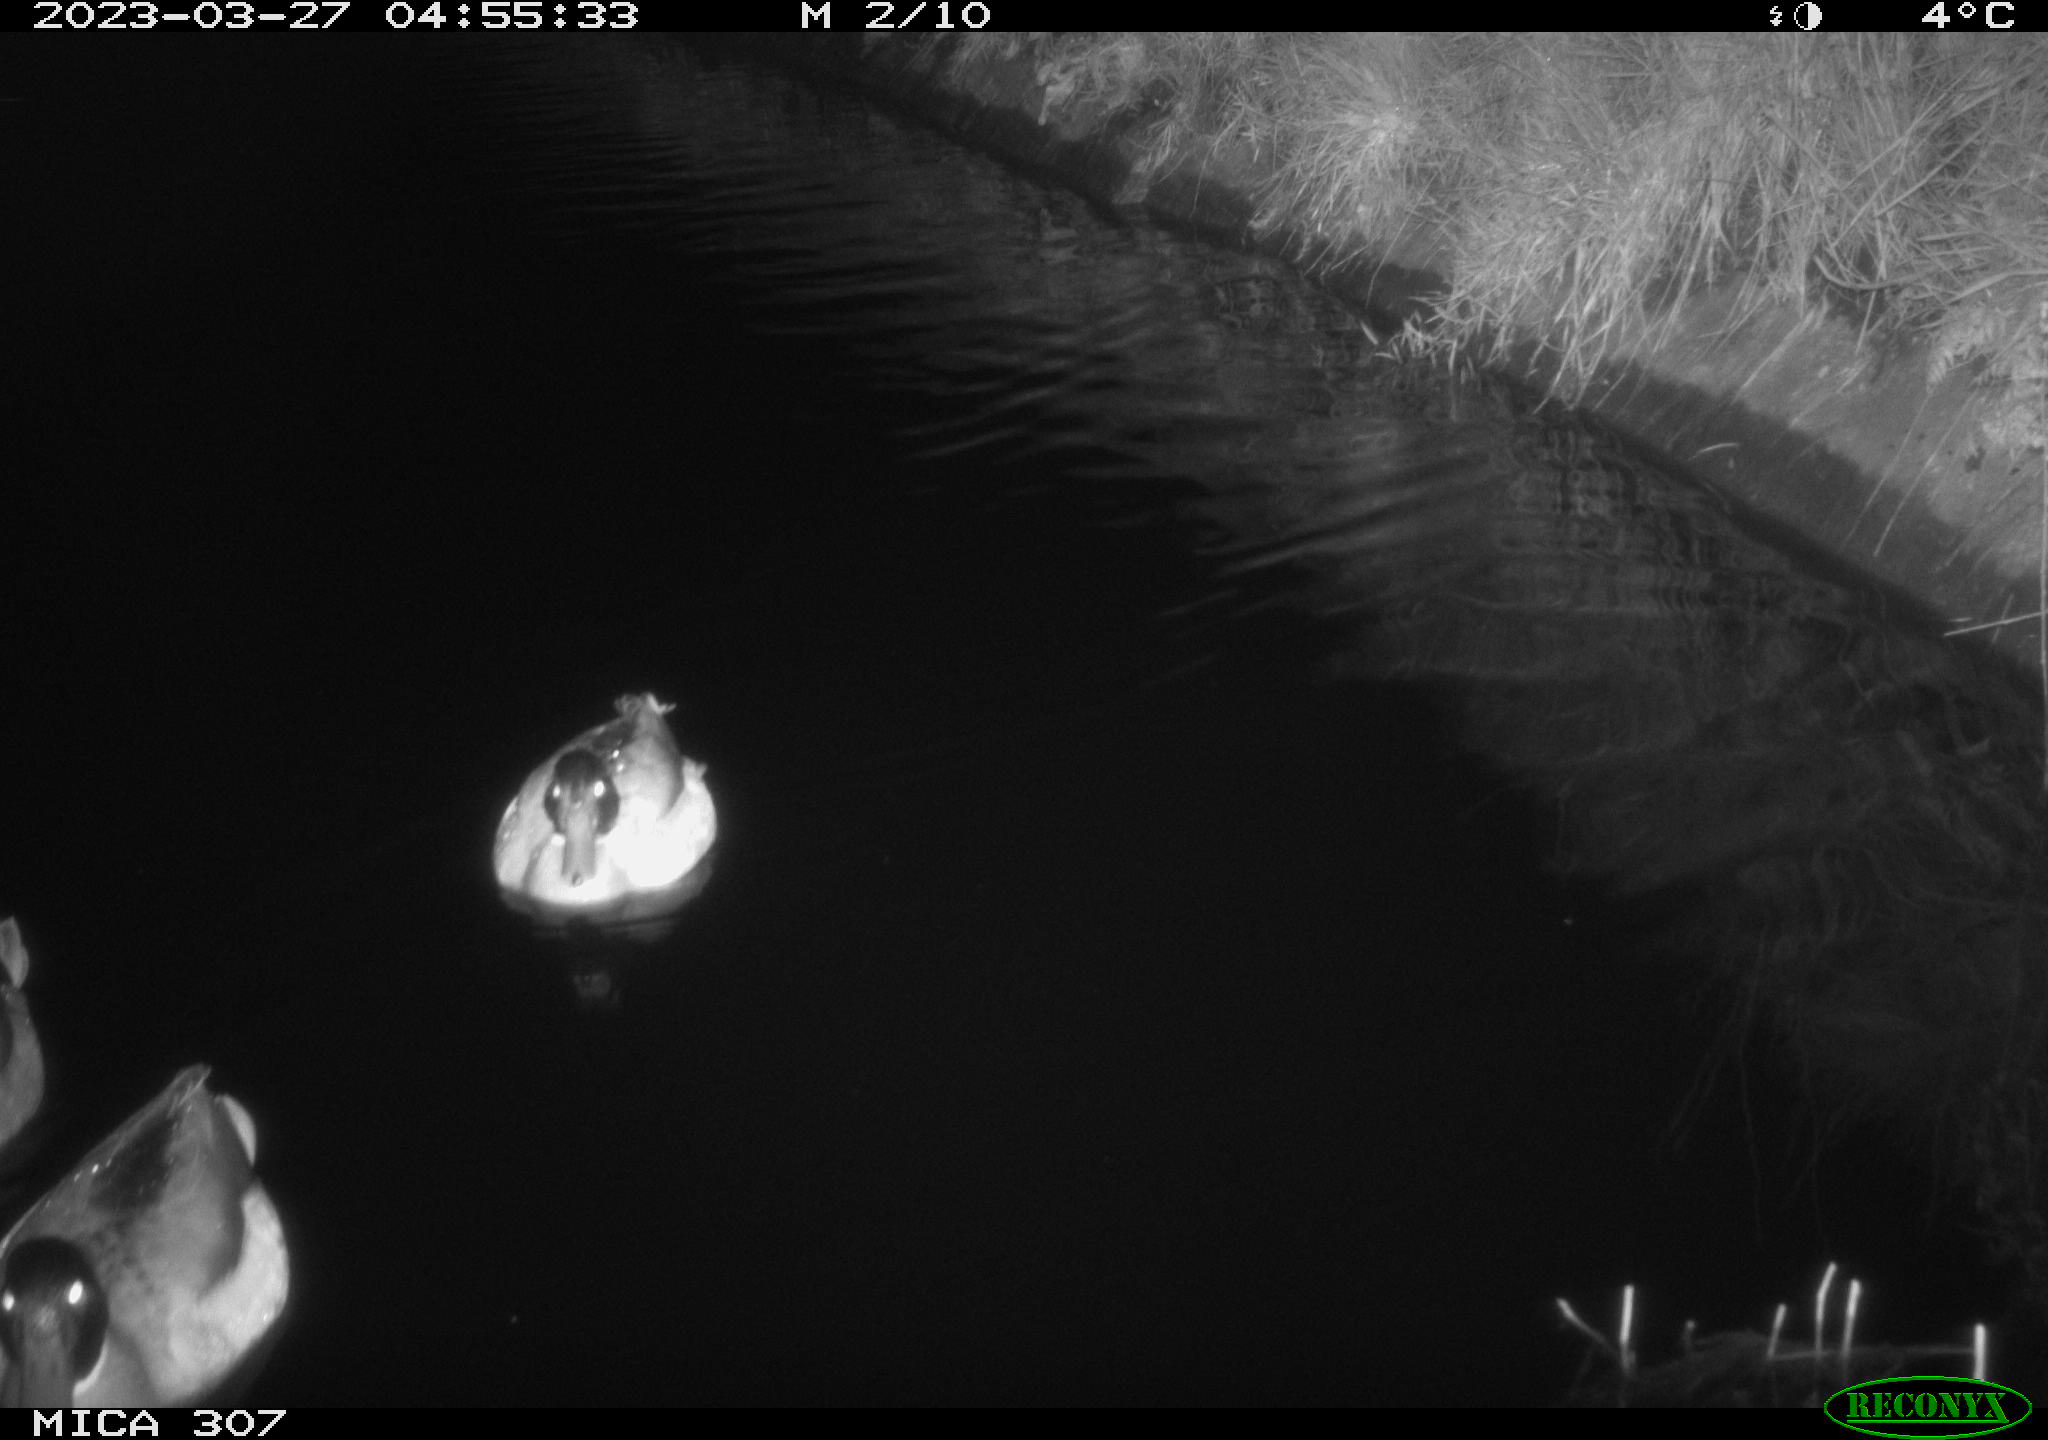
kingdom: Animalia
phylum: Chordata
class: Aves
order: Anseriformes
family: Anatidae
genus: Anas
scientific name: Anas
